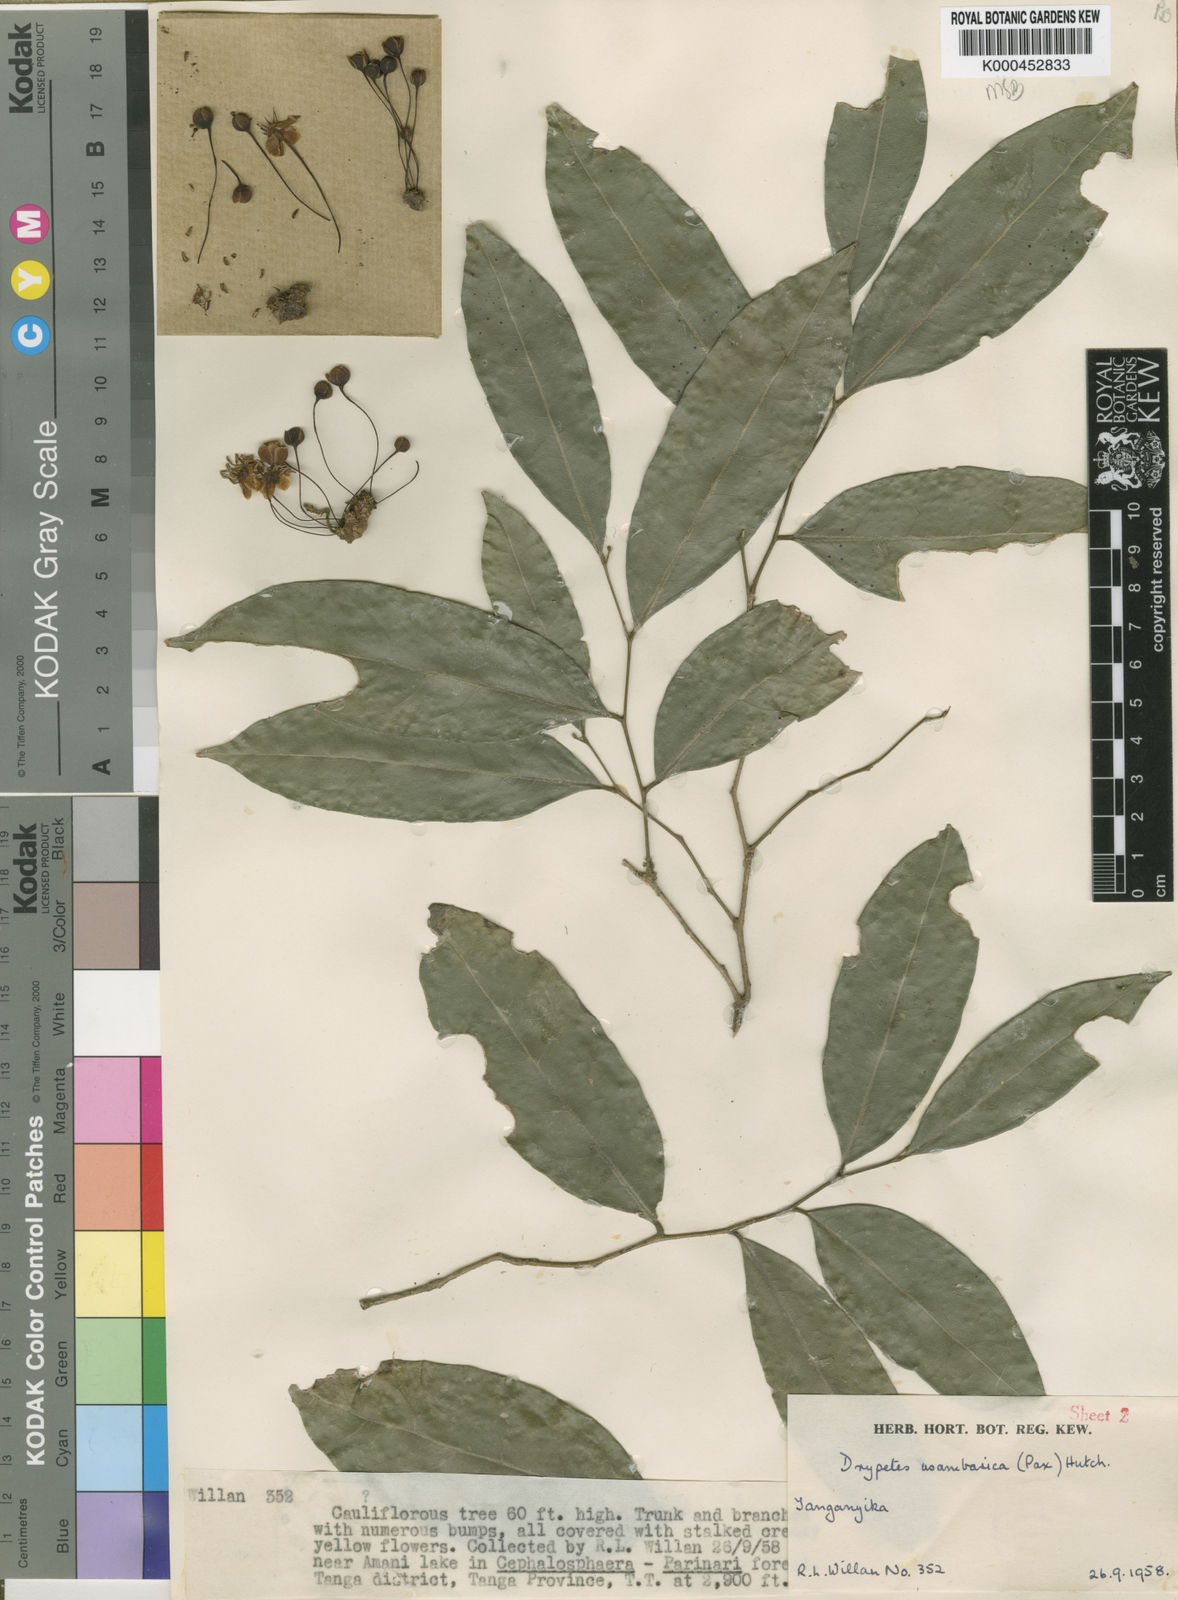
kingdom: Plantae
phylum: Tracheophyta
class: Magnoliopsida
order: Malpighiales
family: Putranjivaceae
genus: Drypetes
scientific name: Drypetes usambarica
